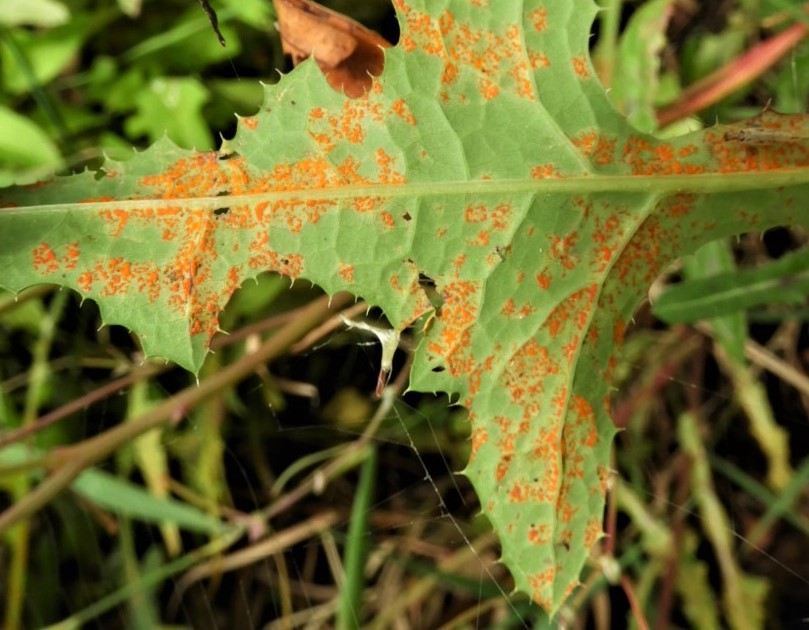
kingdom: Fungi
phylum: Basidiomycota
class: Pucciniomycetes
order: Pucciniales
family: Coleosporiaceae
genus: Coleosporium
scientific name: Coleosporium sonchi
